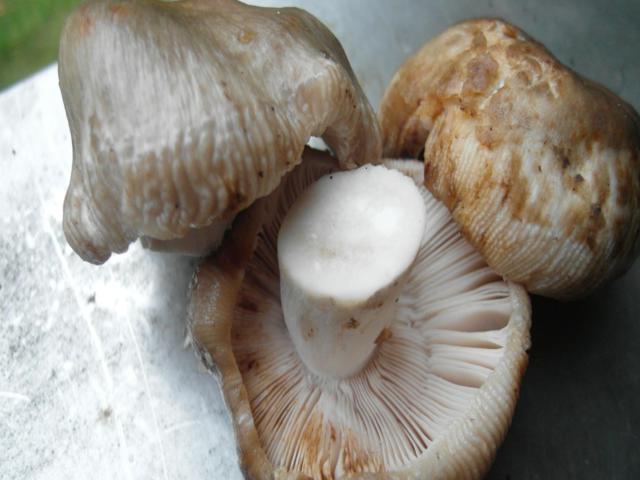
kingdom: Fungi
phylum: Basidiomycota
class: Agaricomycetes
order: Russulales
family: Russulaceae
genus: Russula
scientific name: Russula sororia
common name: brun kam-skørhat
